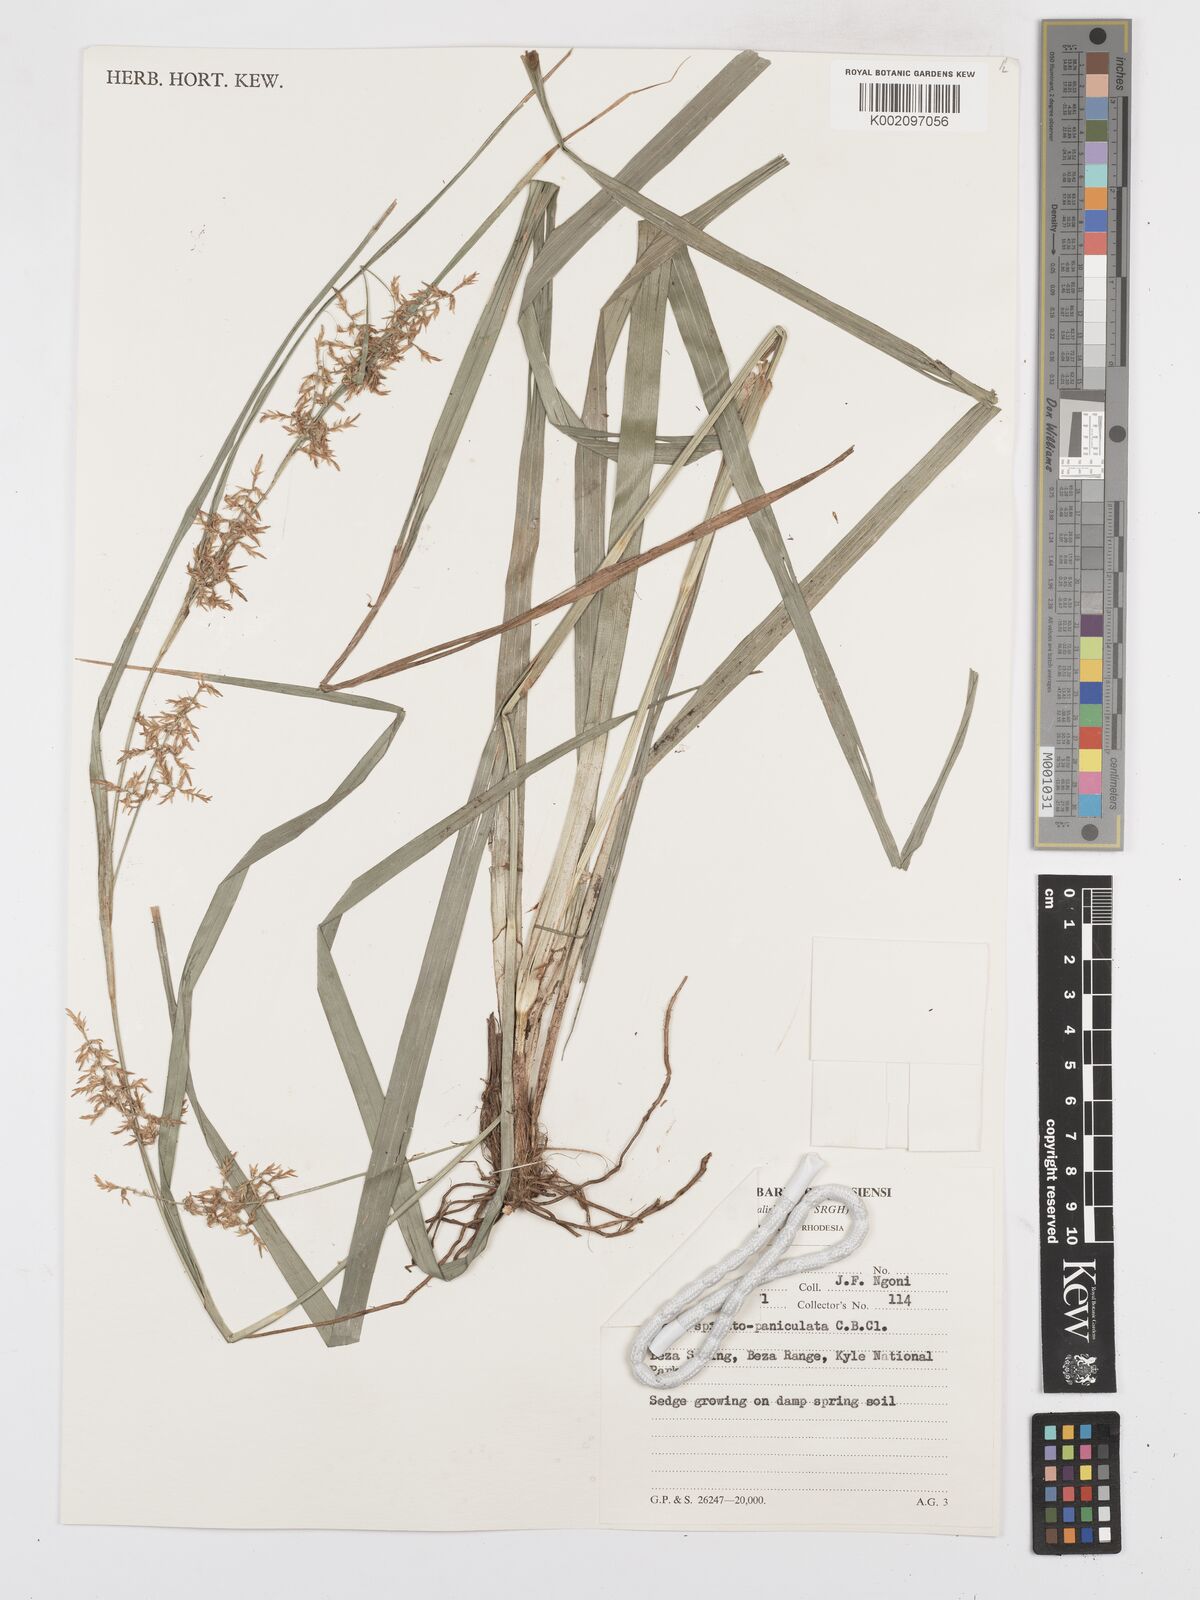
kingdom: Plantae
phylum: Tracheophyta
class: Liliopsida
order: Poales
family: Cyperaceae
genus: Carex
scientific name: Carex spicatopaniculata
